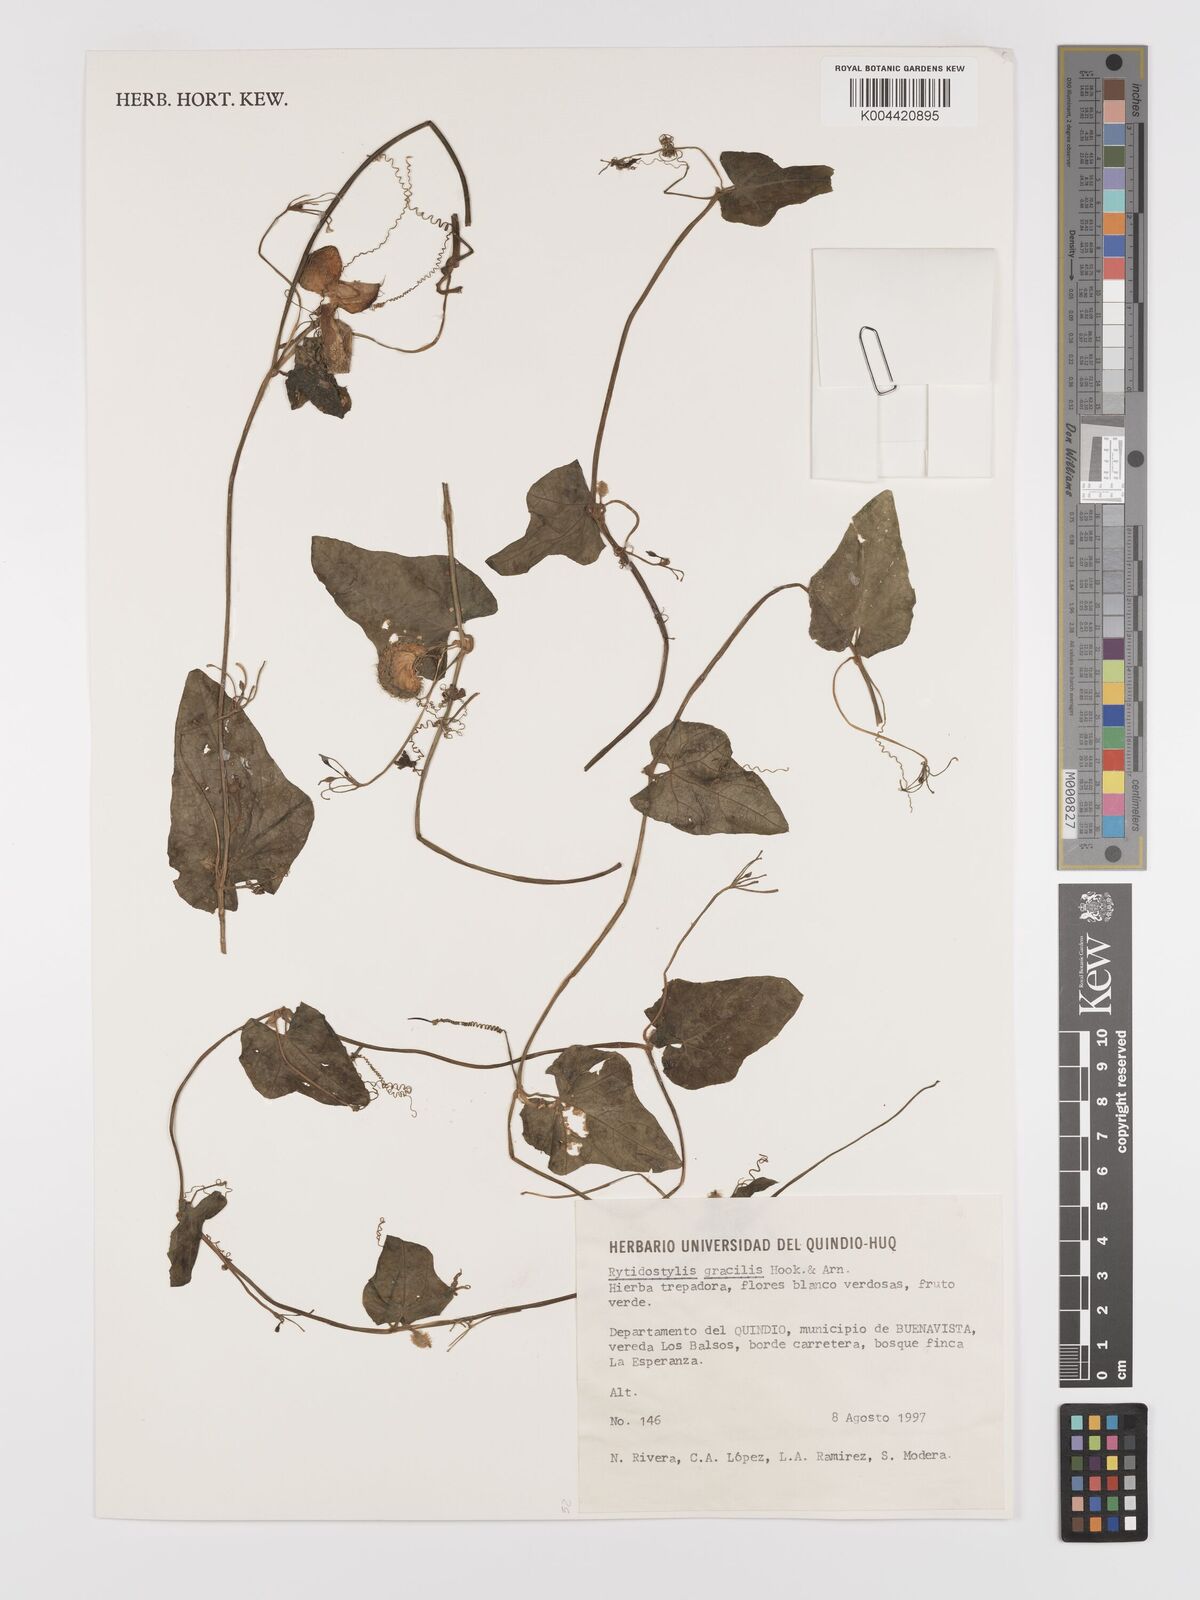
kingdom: Plantae
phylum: Tracheophyta
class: Magnoliopsida
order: Cucurbitales
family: Cucurbitaceae
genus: Cyclanthera
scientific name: Cyclanthera filiformis
